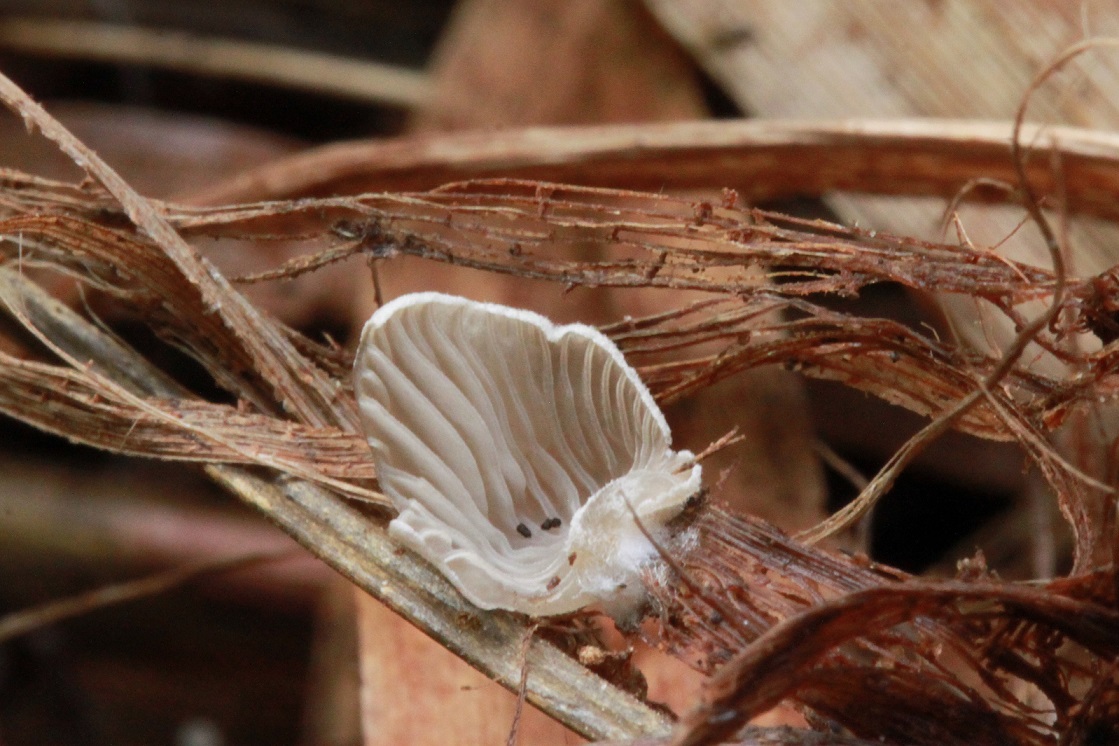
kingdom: Fungi
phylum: Basidiomycota
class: Agaricomycetes
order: Agaricales
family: Hygrophoraceae
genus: Arrhenia
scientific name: Arrhenia
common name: fontænehat
